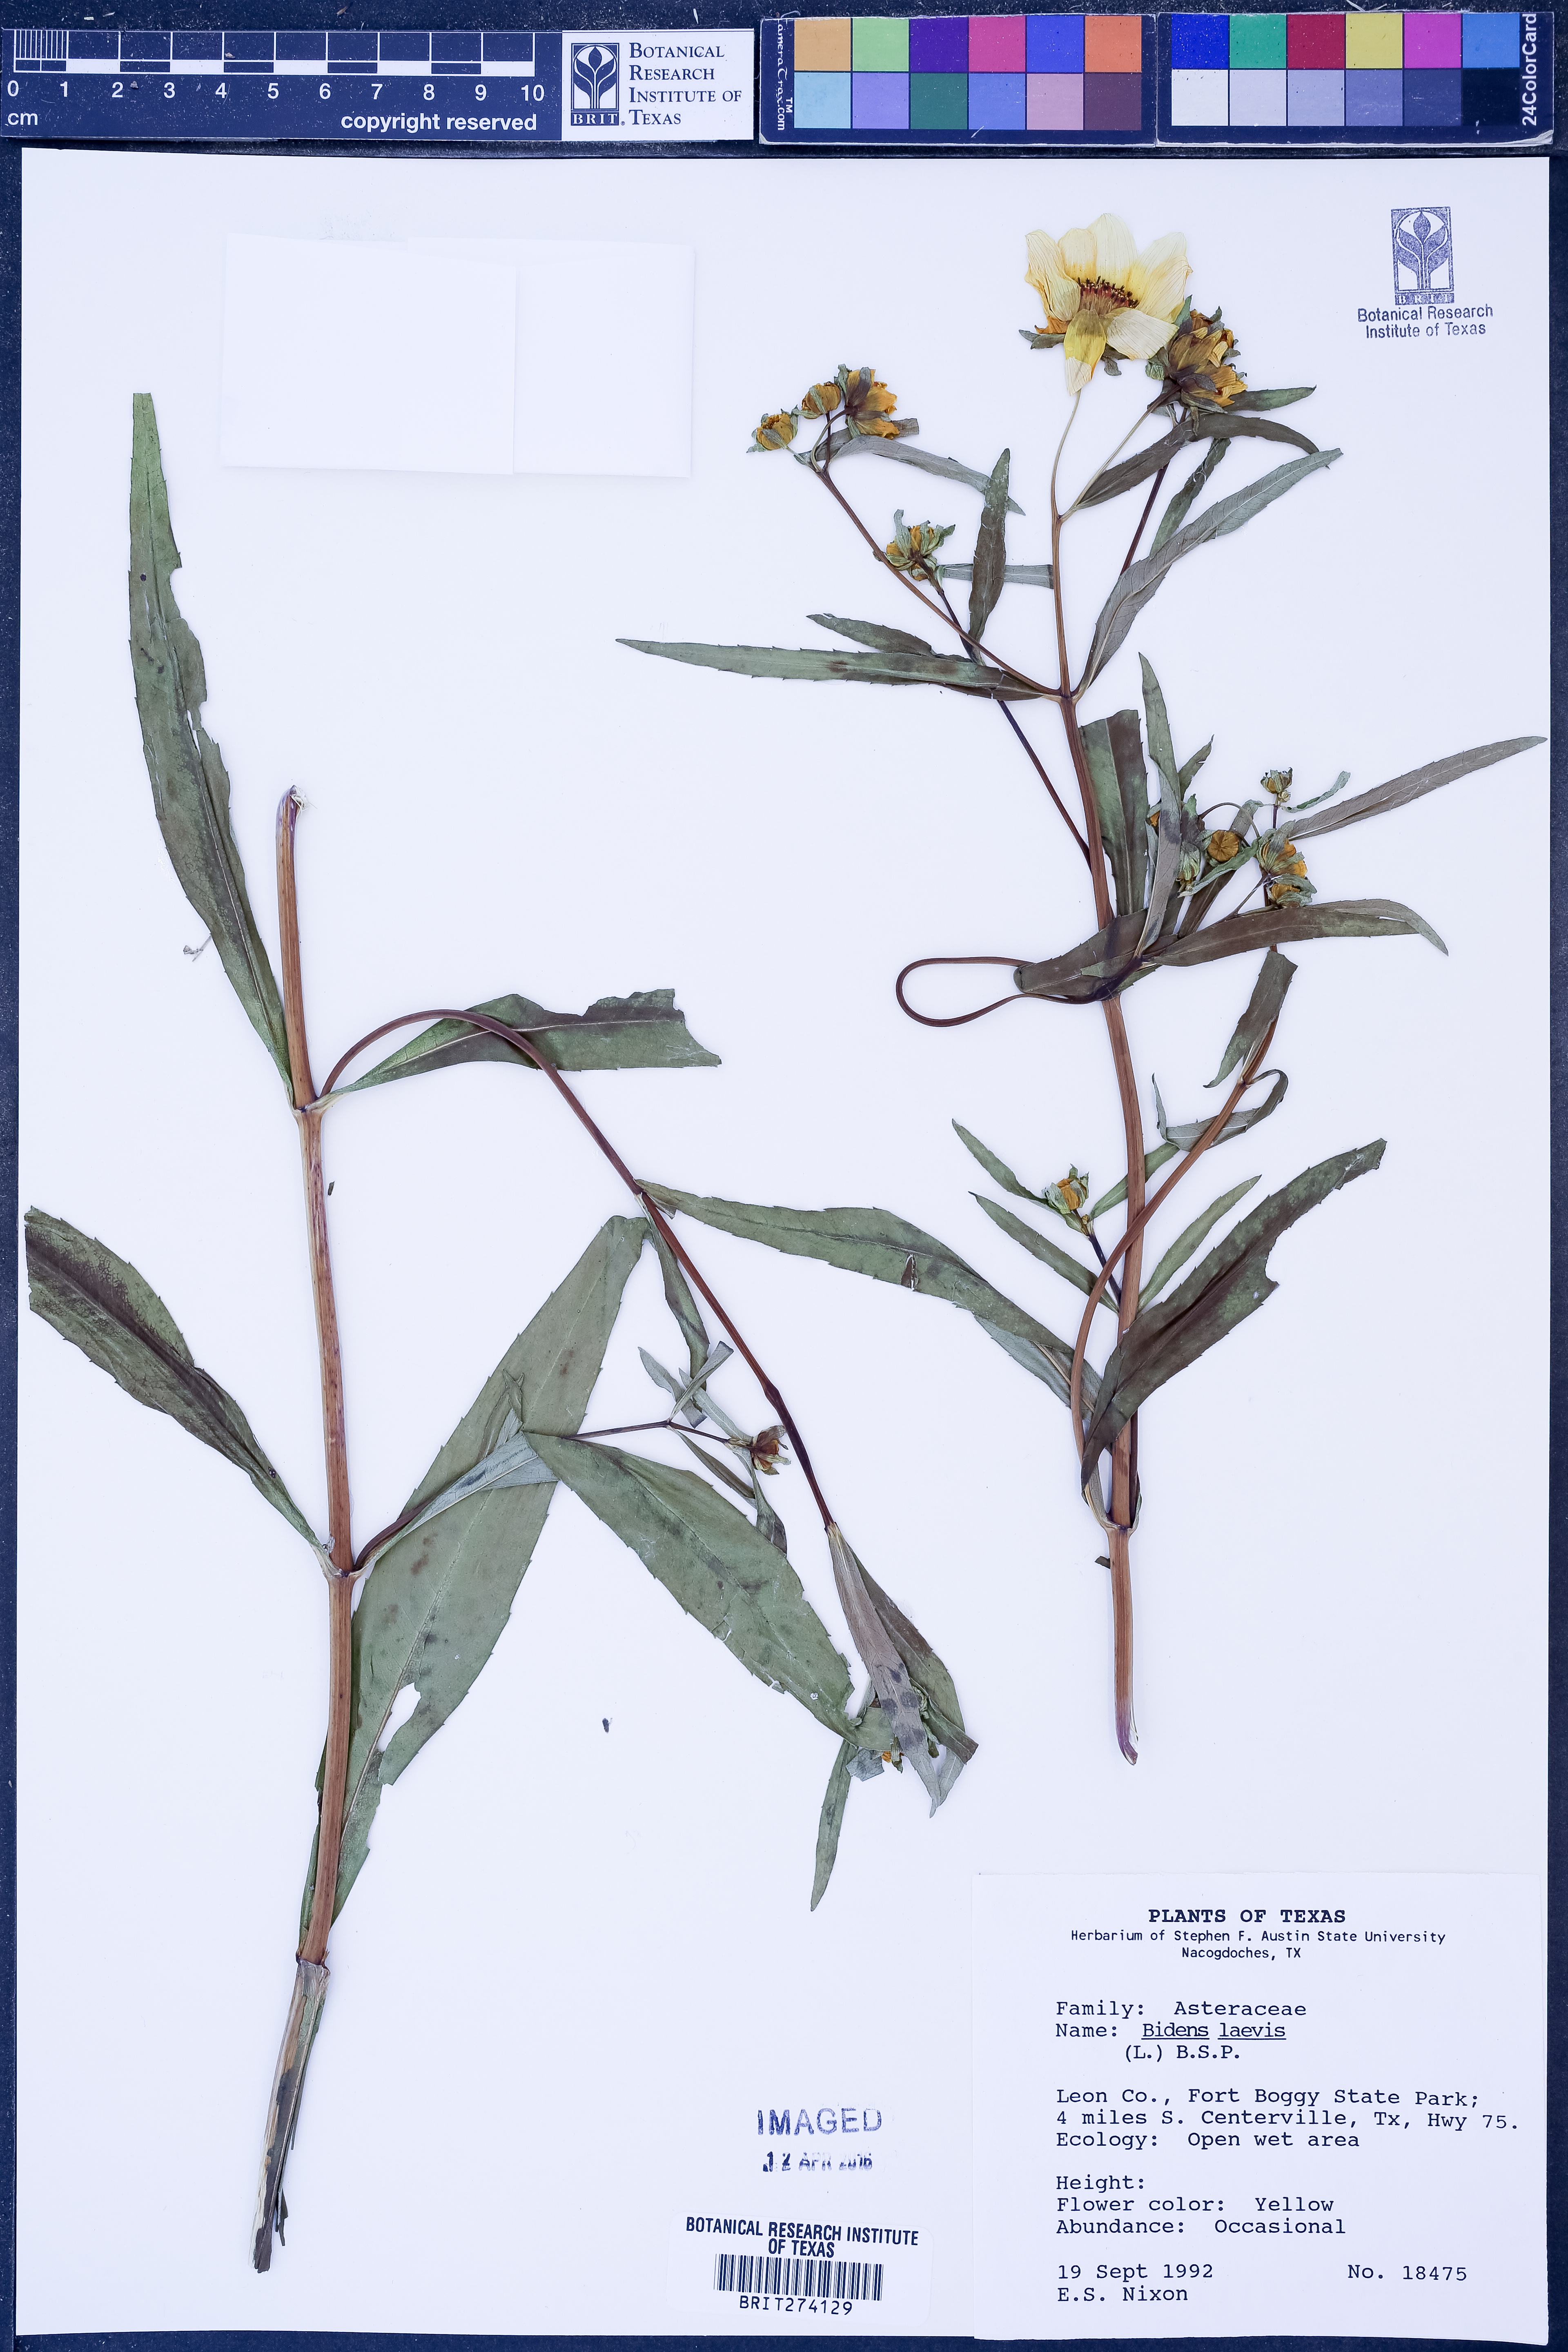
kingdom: Plantae
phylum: Tracheophyta
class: Magnoliopsida
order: Asterales
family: Asteraceae
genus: Bidens
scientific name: Bidens laevis
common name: Larger bur-marigold
